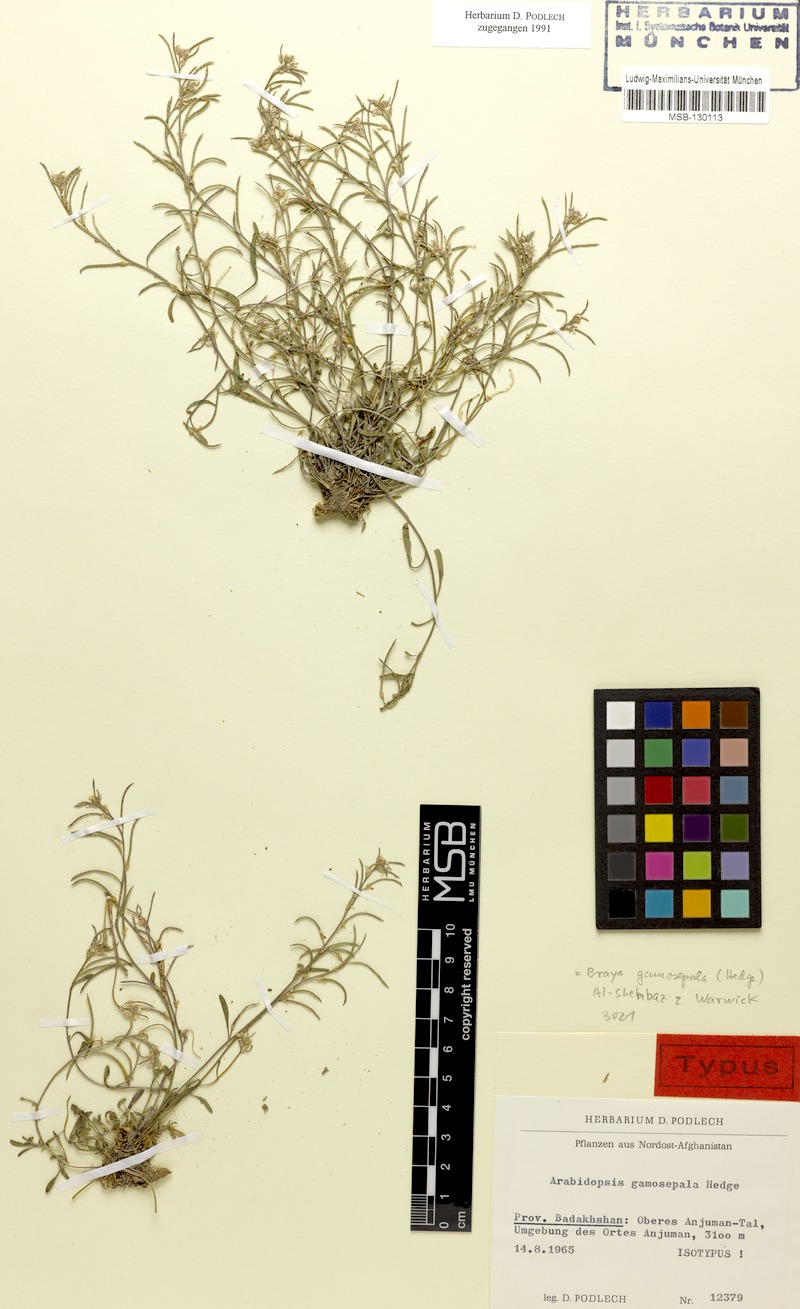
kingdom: Plantae
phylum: Tracheophyta
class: Magnoliopsida
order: Brassicales
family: Brassicaceae
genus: Braya
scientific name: Braya gamosepala
